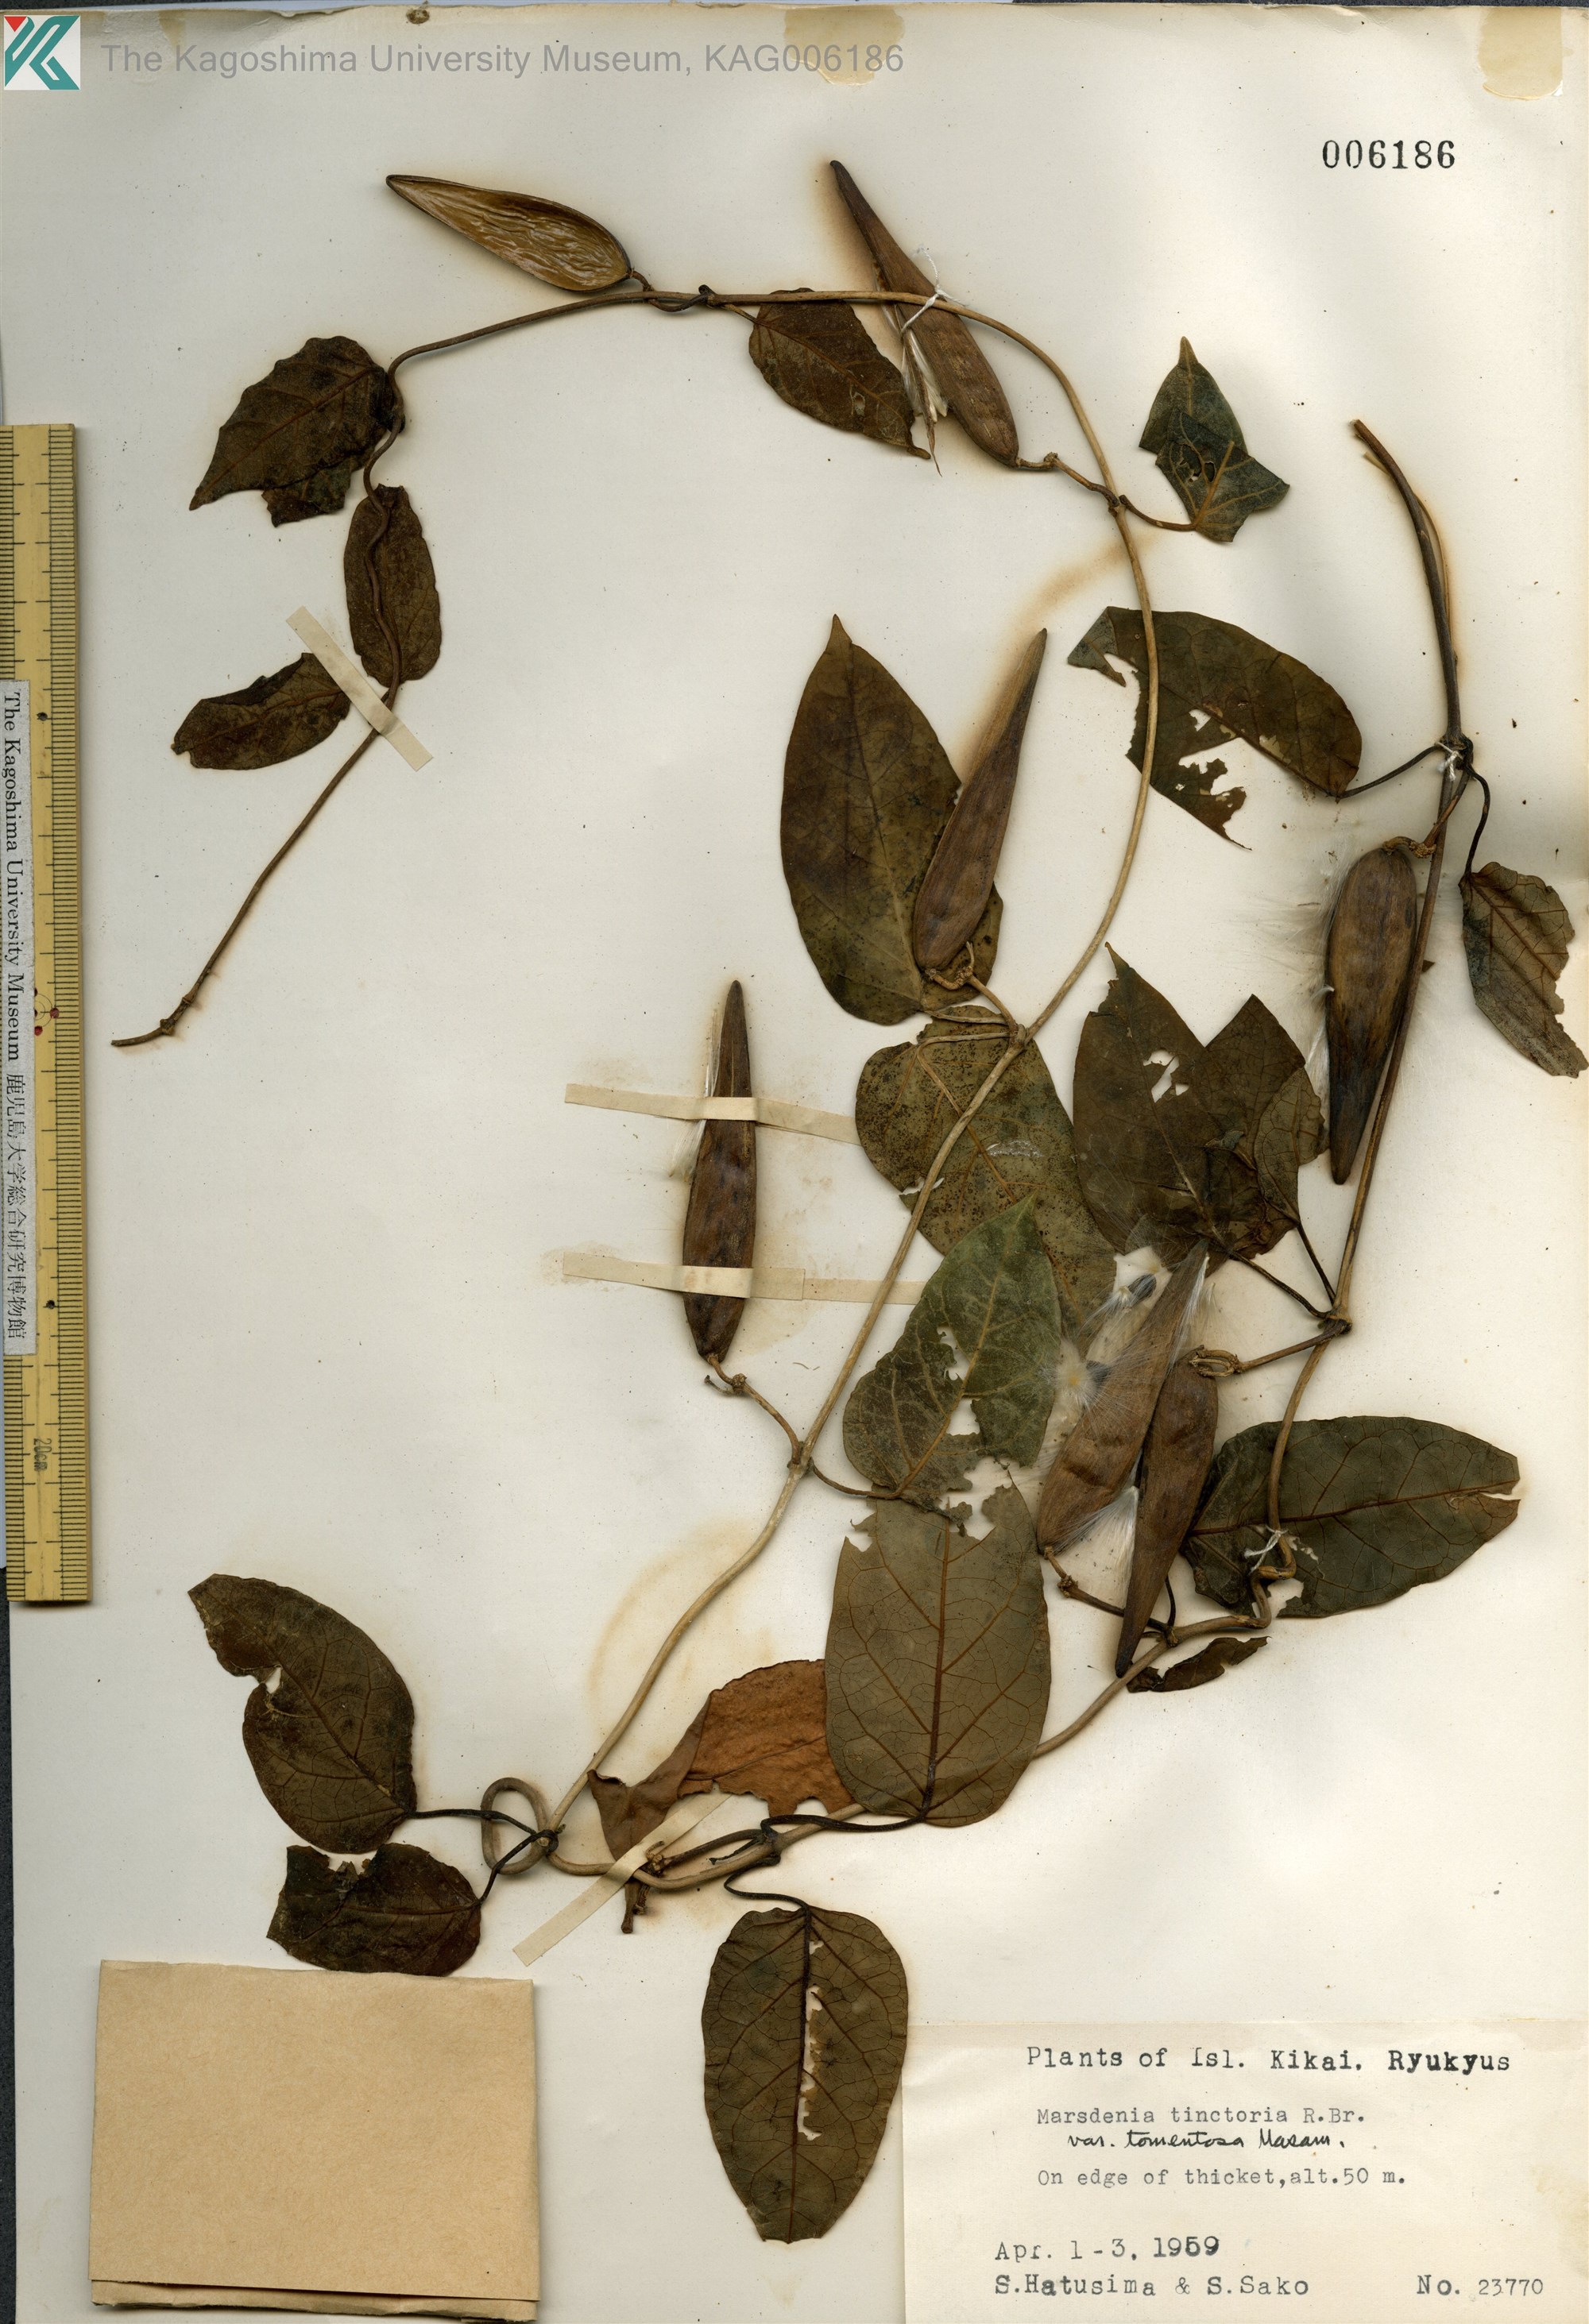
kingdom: Plantae
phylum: Tracheophyta
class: Magnoliopsida
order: Gentianales
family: Apocynaceae
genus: Marsdenia
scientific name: Marsdenia tinctoria
